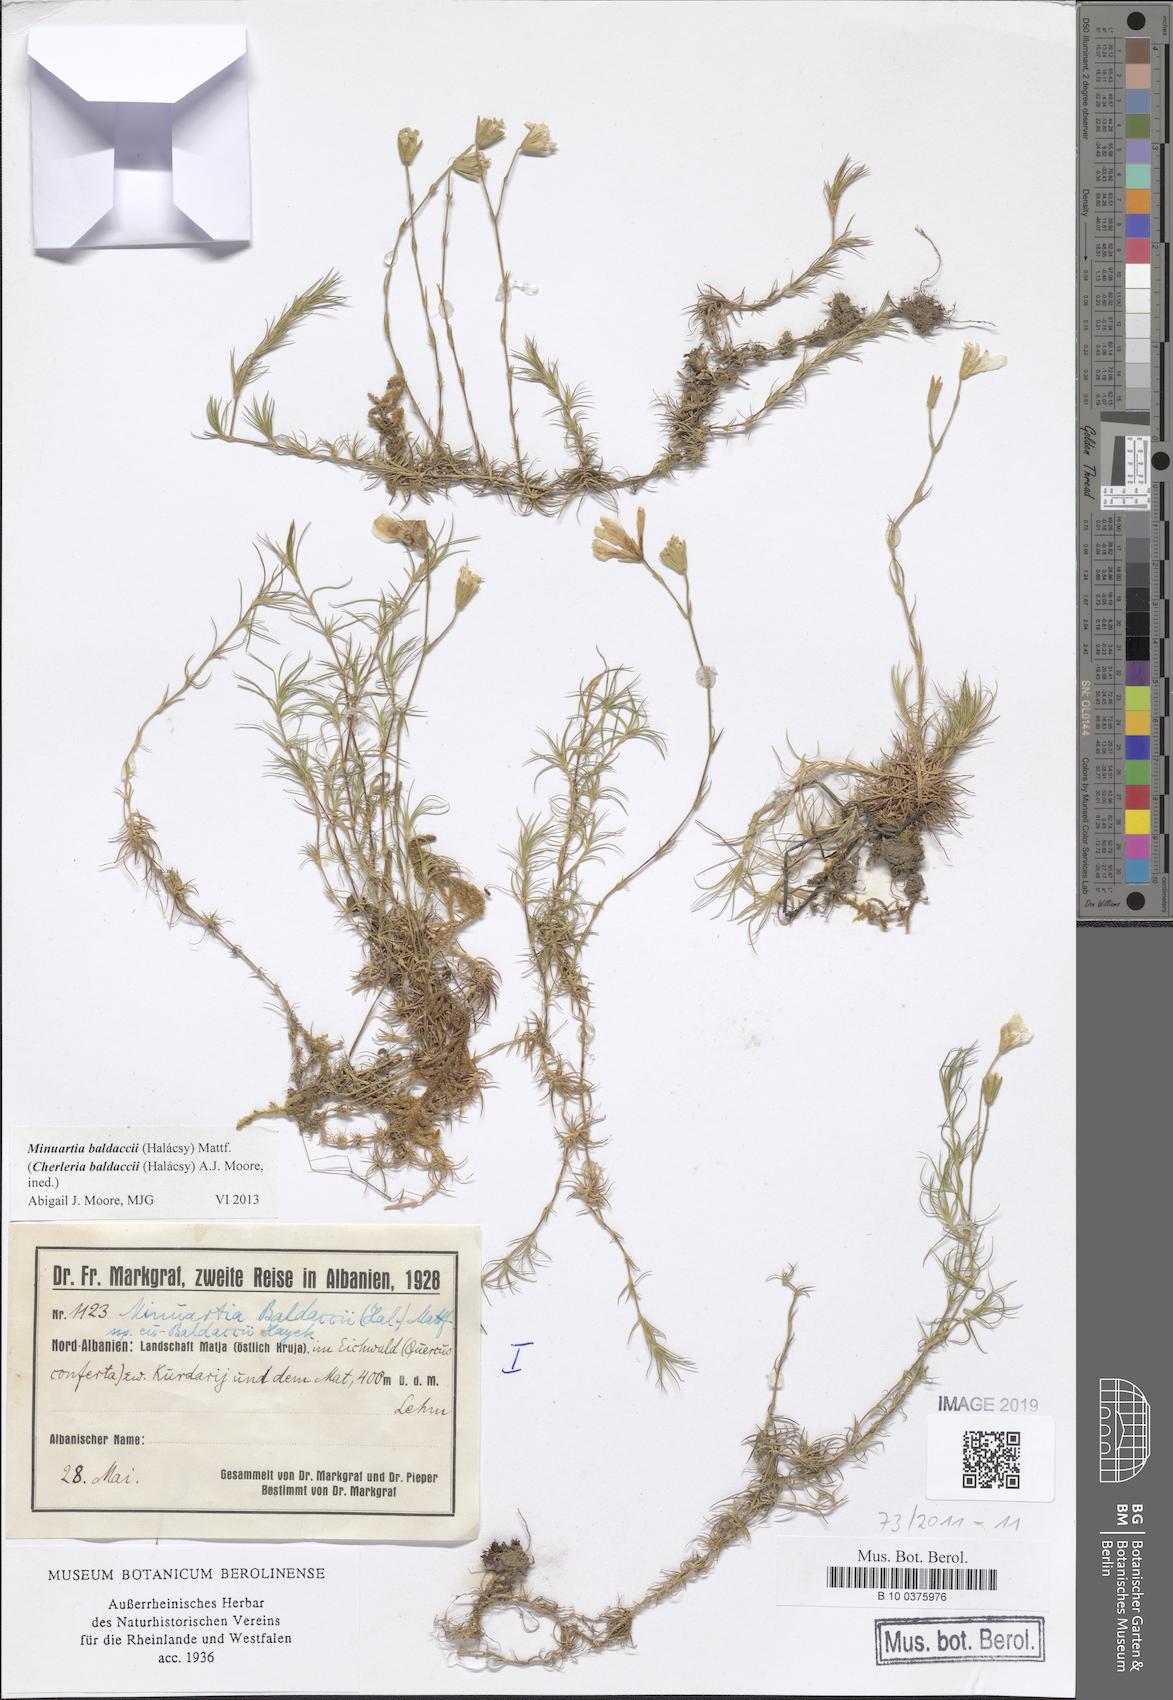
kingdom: Plantae
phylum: Tracheophyta
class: Magnoliopsida
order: Caryophyllales
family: Caryophyllaceae
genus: Cherleria
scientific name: Cherleria baldaccii
